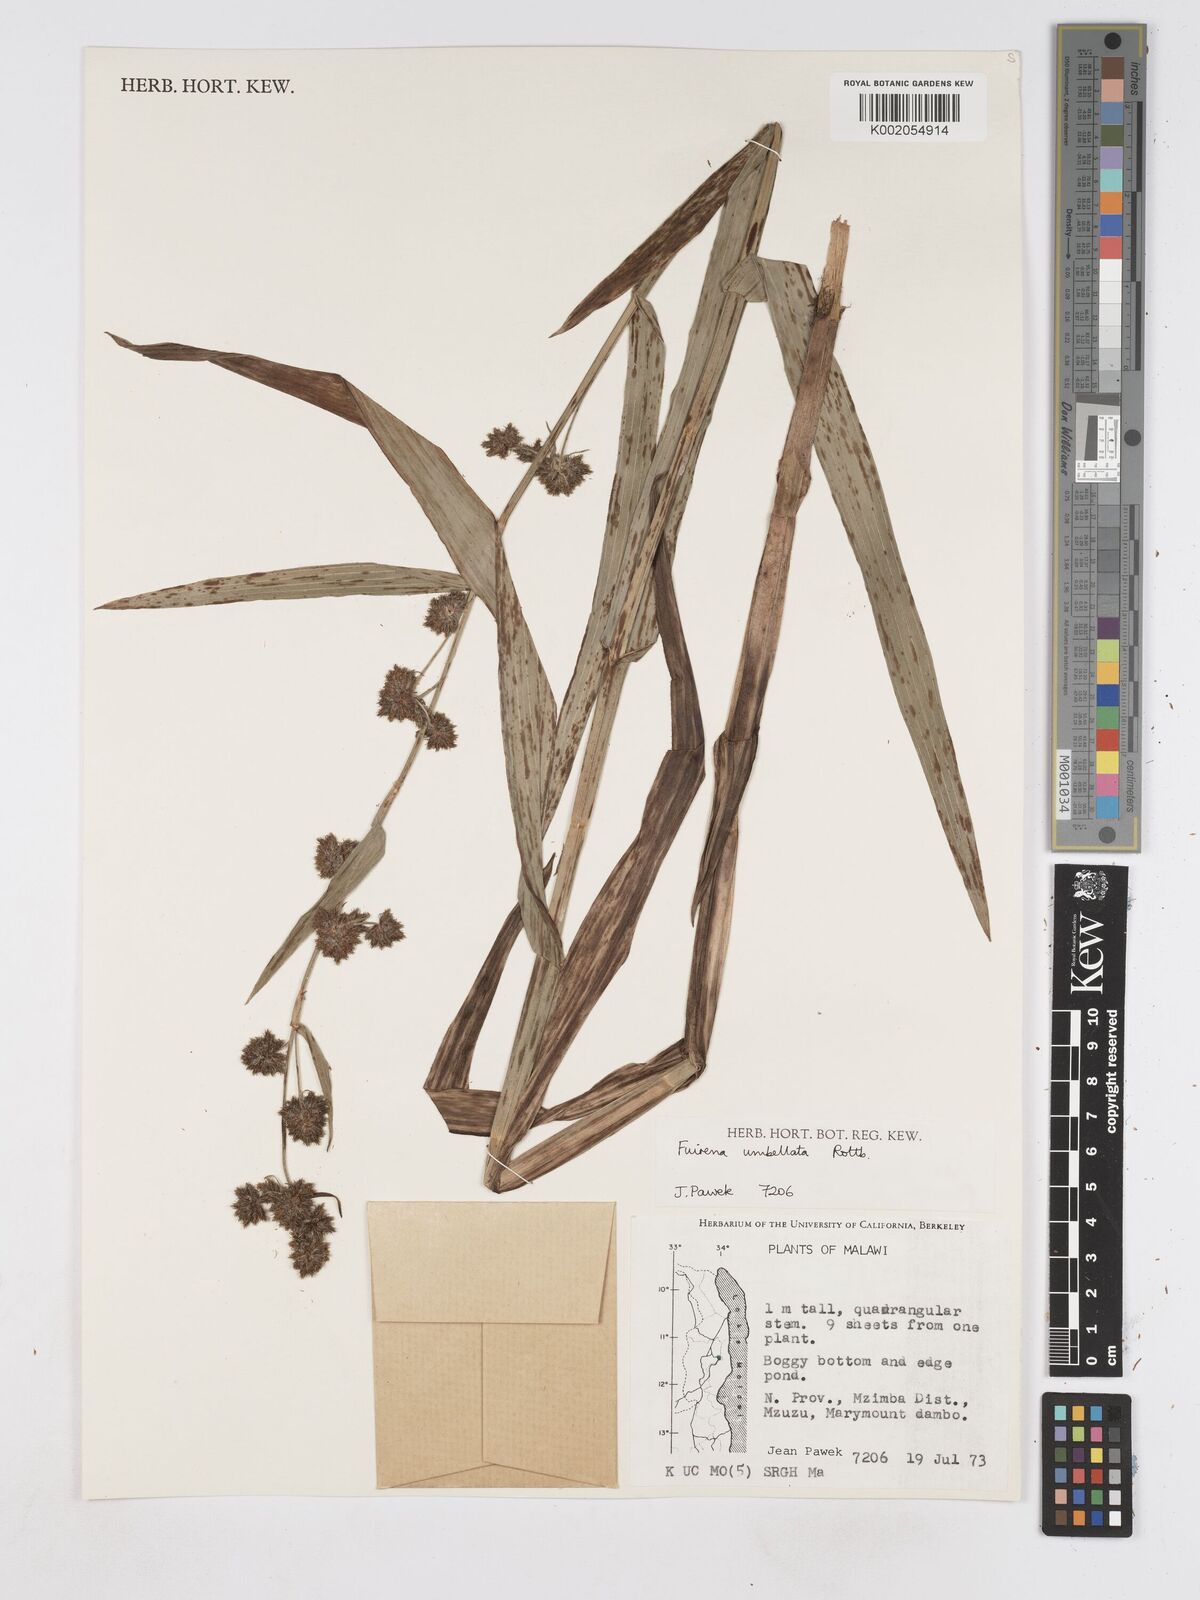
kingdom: Plantae
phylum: Tracheophyta
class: Liliopsida
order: Poales
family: Cyperaceae
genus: Fuirena
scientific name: Fuirena umbellata
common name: Yefen
